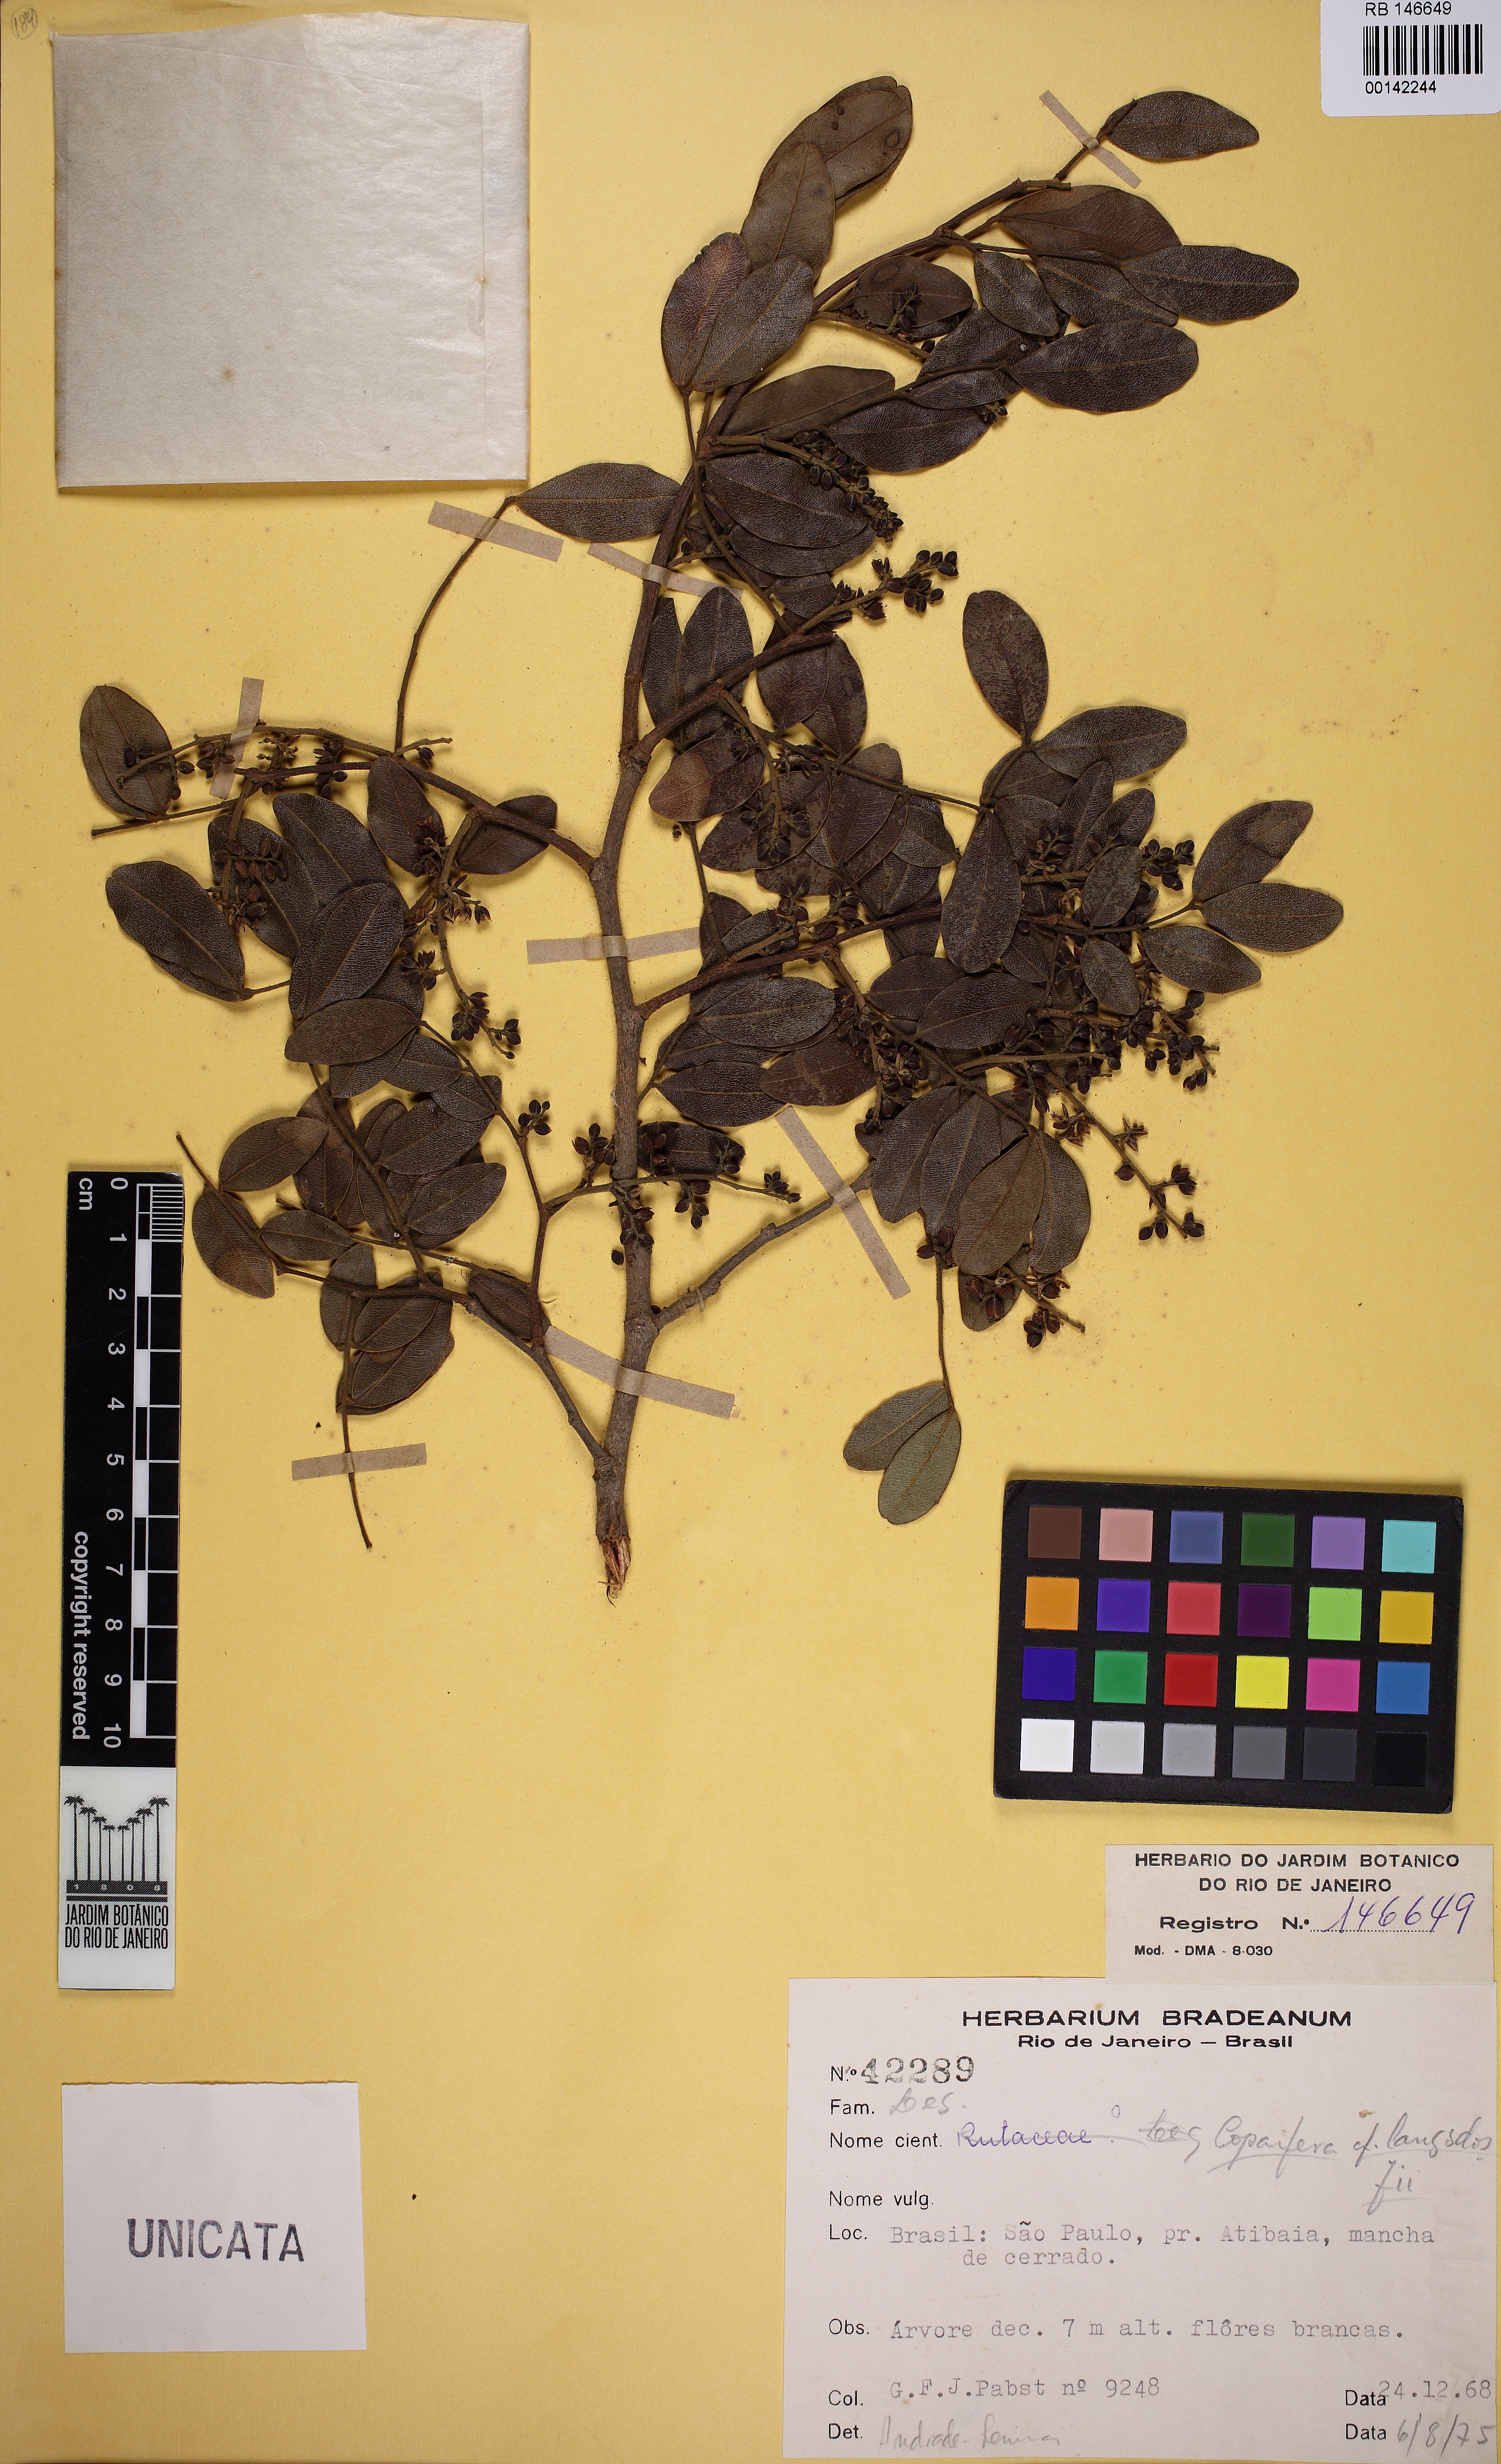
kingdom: Plantae
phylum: Tracheophyta
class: Magnoliopsida
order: Fabales
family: Fabaceae
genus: Copaifera
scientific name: Copaifera langsdorffii
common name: Brazilian diesel tree
